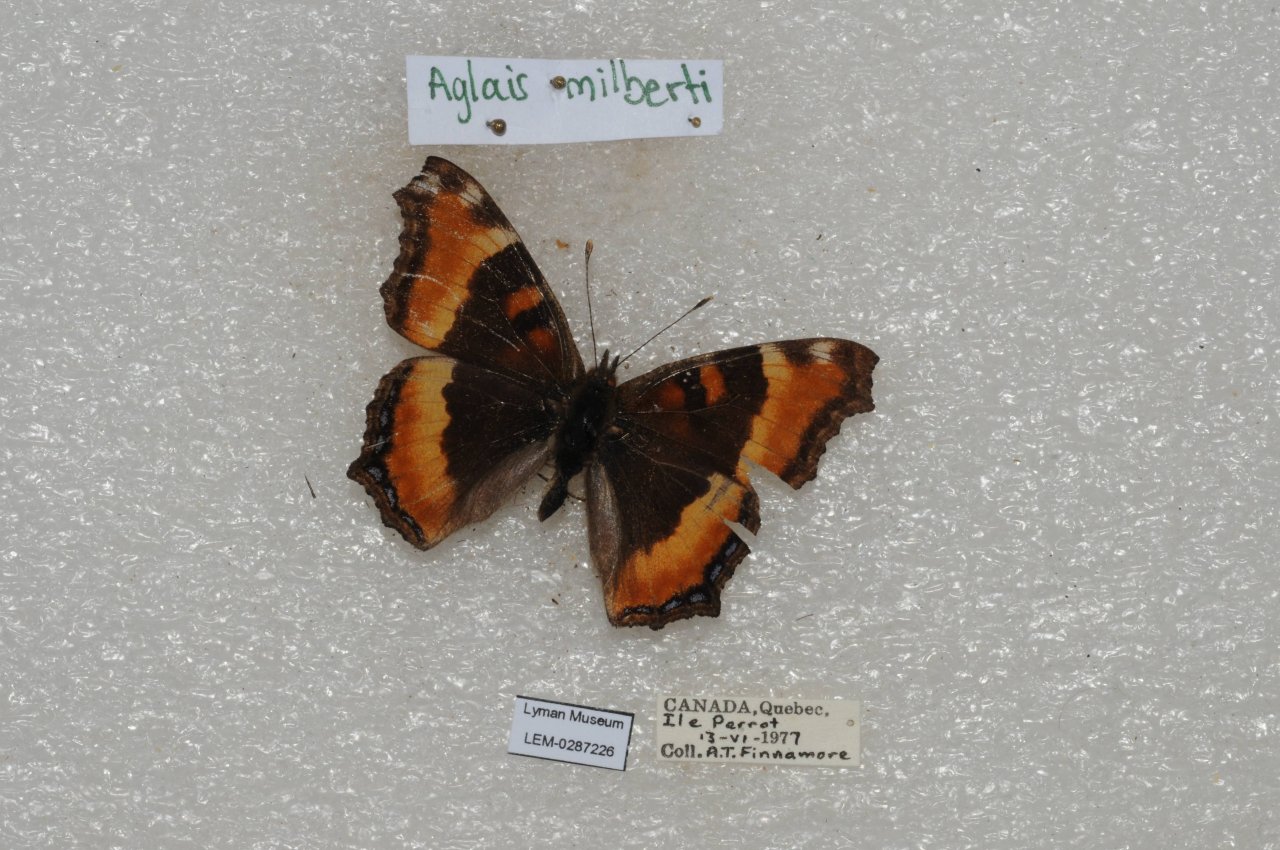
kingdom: Animalia
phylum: Arthropoda
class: Insecta
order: Lepidoptera
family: Nymphalidae
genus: Aglais
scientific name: Aglais milberti
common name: Milbert's Tortoiseshell
